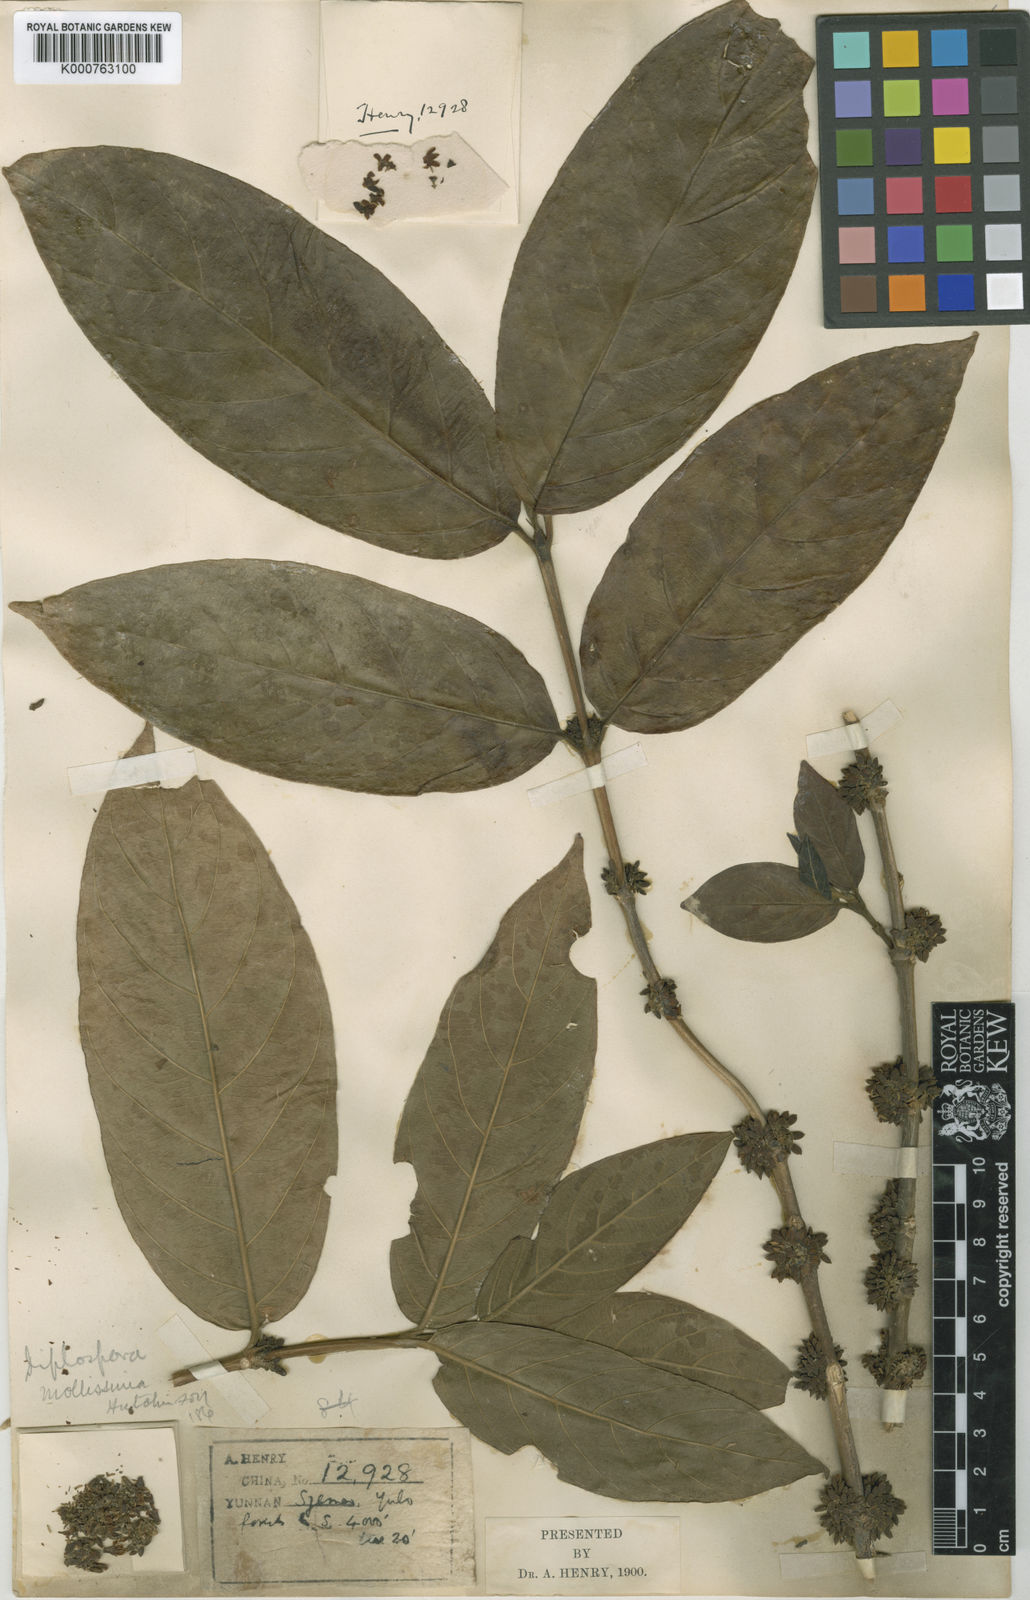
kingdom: Plantae
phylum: Tracheophyta
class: Magnoliopsida
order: Gentianales
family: Rubiaceae
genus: Diplospora
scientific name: Diplospora mollissima
